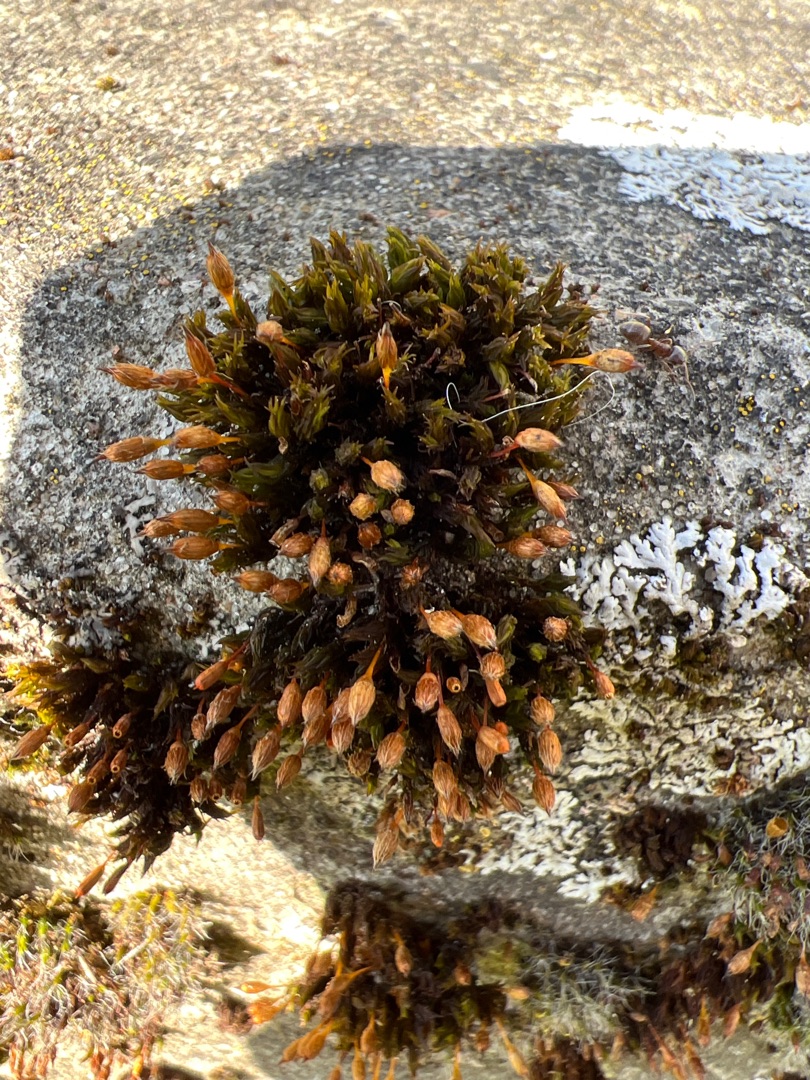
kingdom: Plantae
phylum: Bryophyta
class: Bryopsida
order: Orthotrichales
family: Orthotrichaceae
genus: Orthotrichum
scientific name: Orthotrichum anomalum
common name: Mørk furehætte
